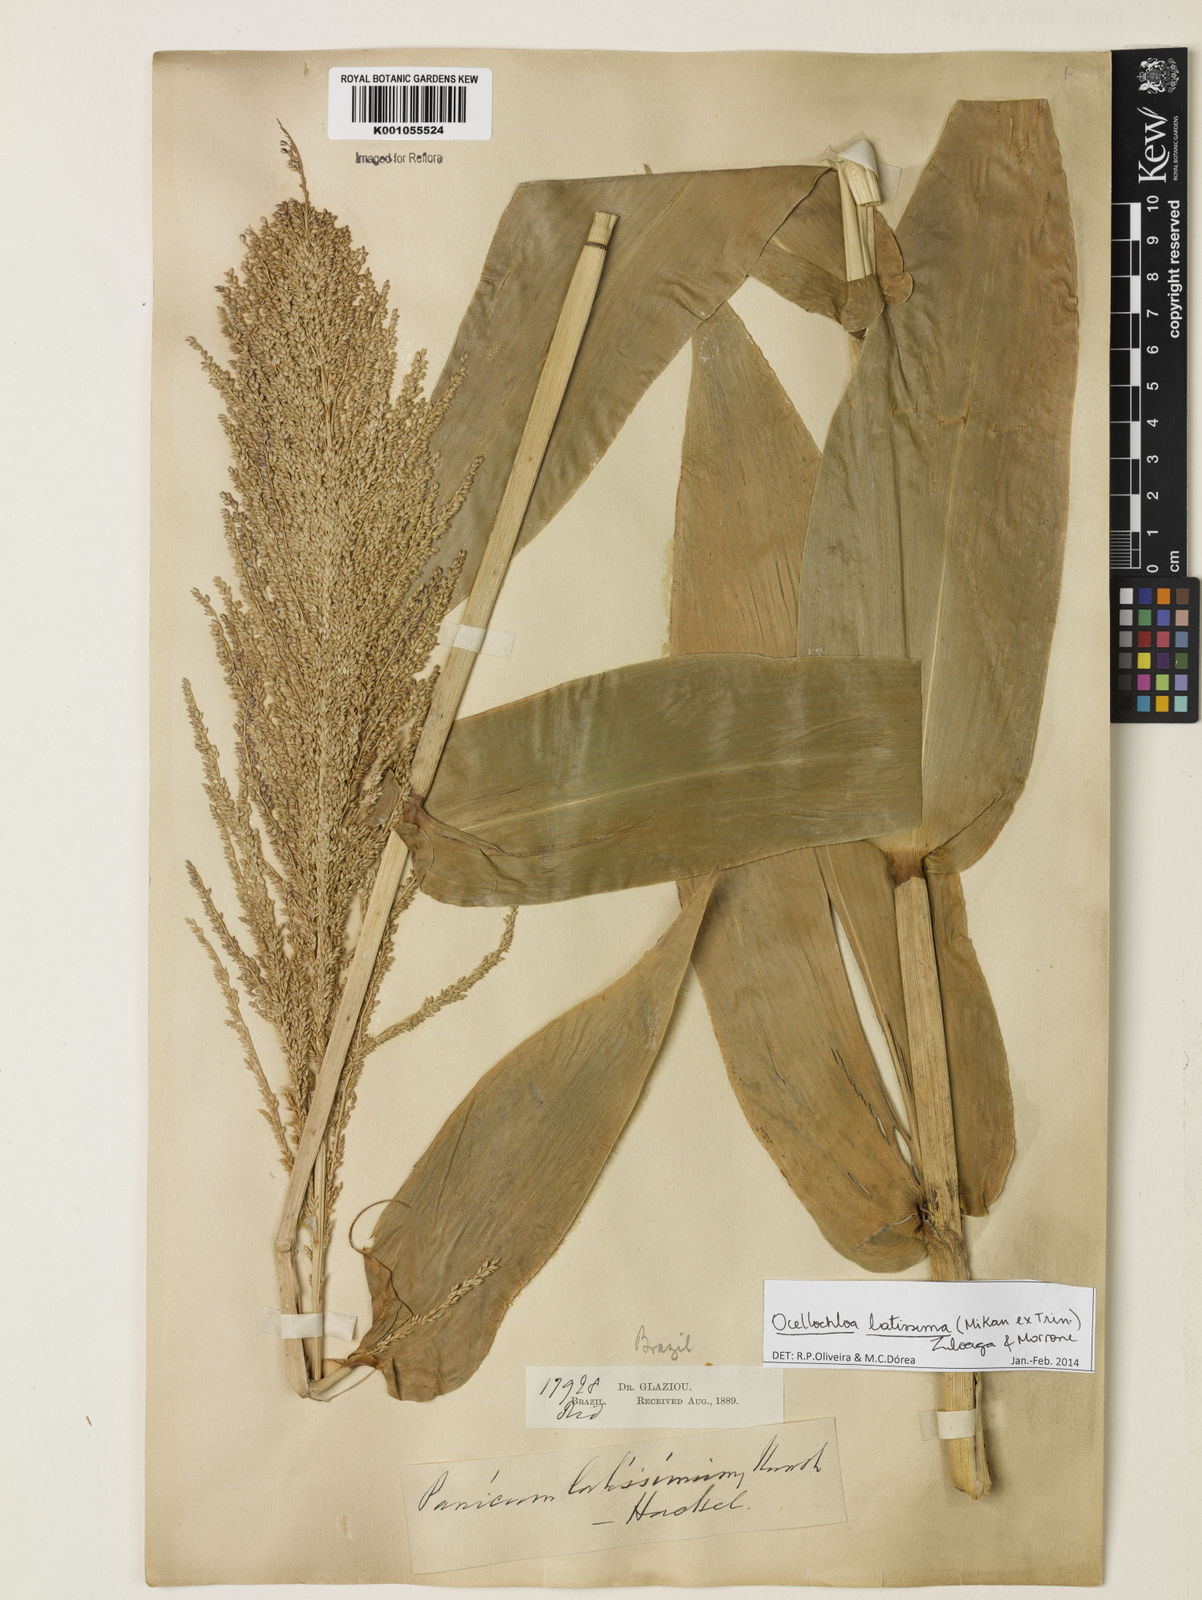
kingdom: Plantae
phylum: Tracheophyta
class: Liliopsida
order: Poales
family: Poaceae
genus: Ocellochloa
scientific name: Ocellochloa latissima
